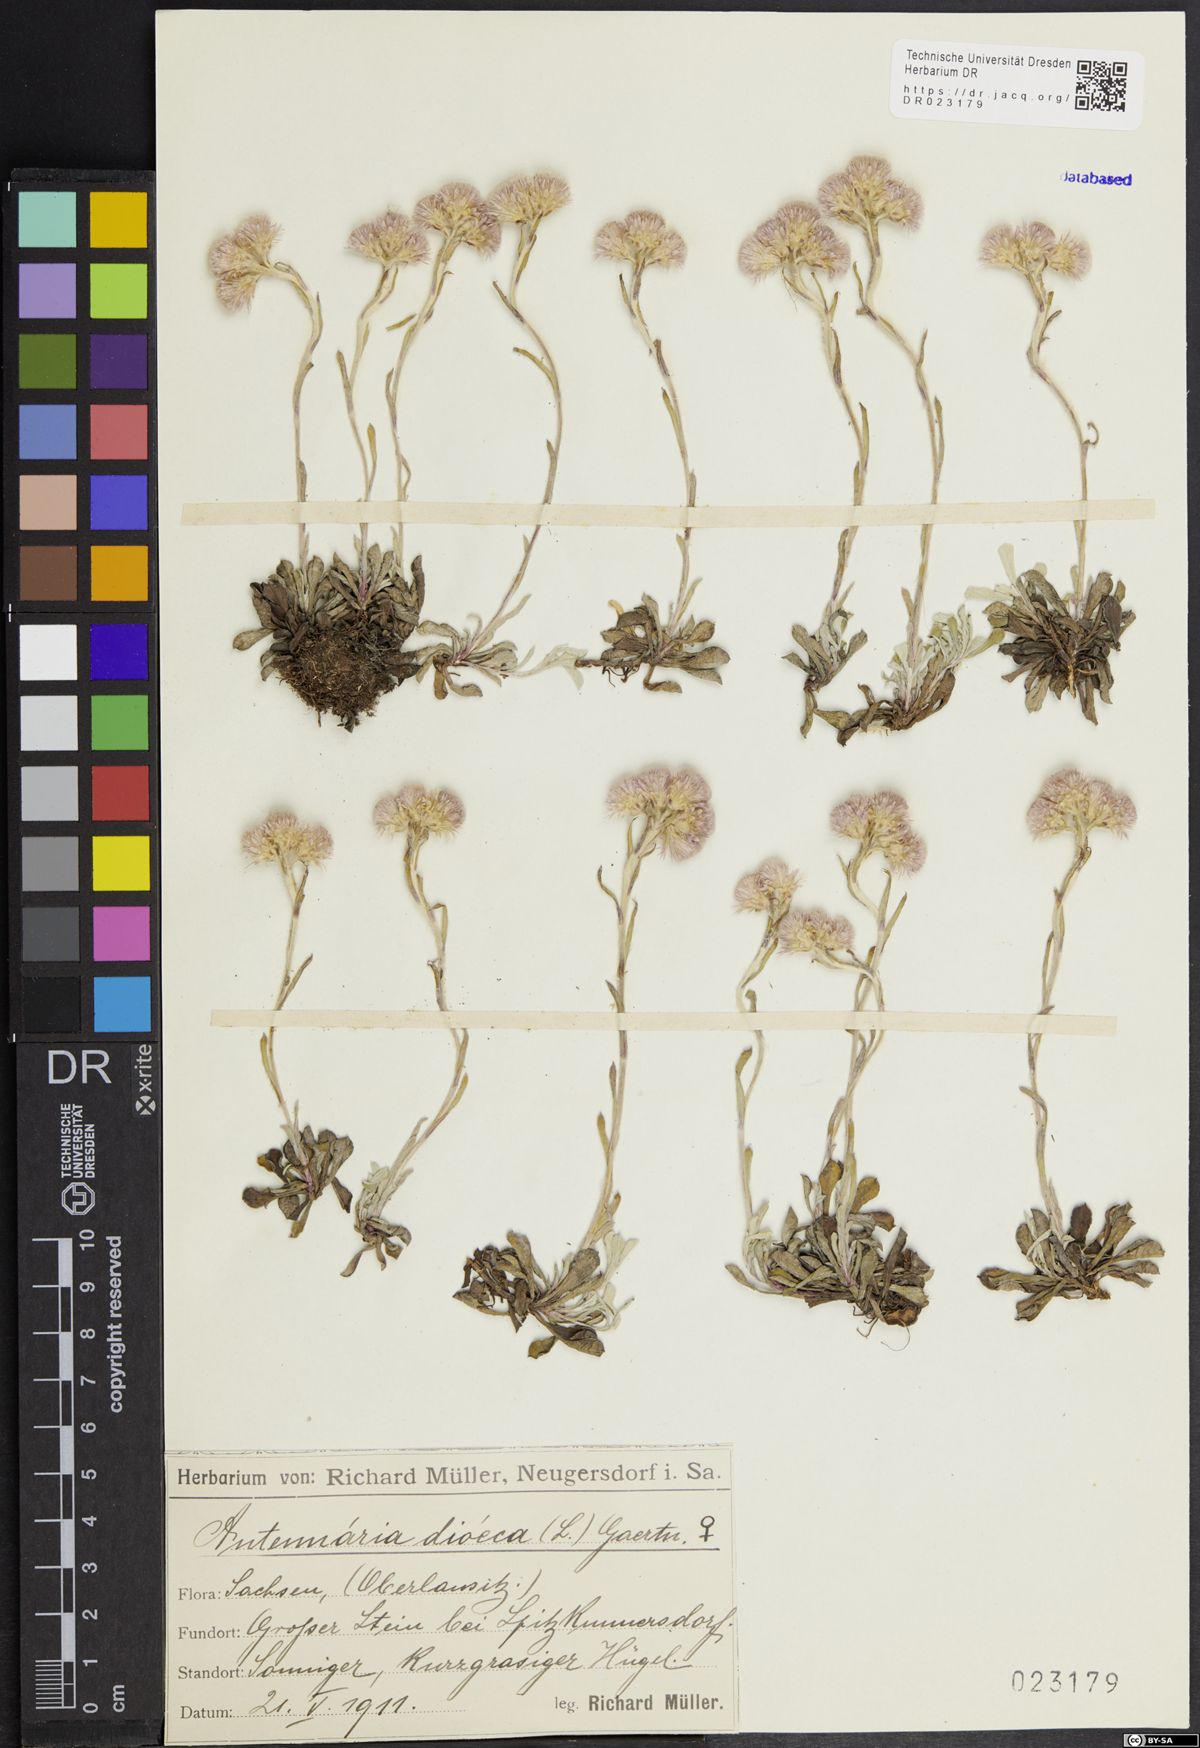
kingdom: Plantae
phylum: Tracheophyta
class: Magnoliopsida
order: Asterales
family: Asteraceae
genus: Antennaria
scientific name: Antennaria dioica
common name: Mountain everlasting
